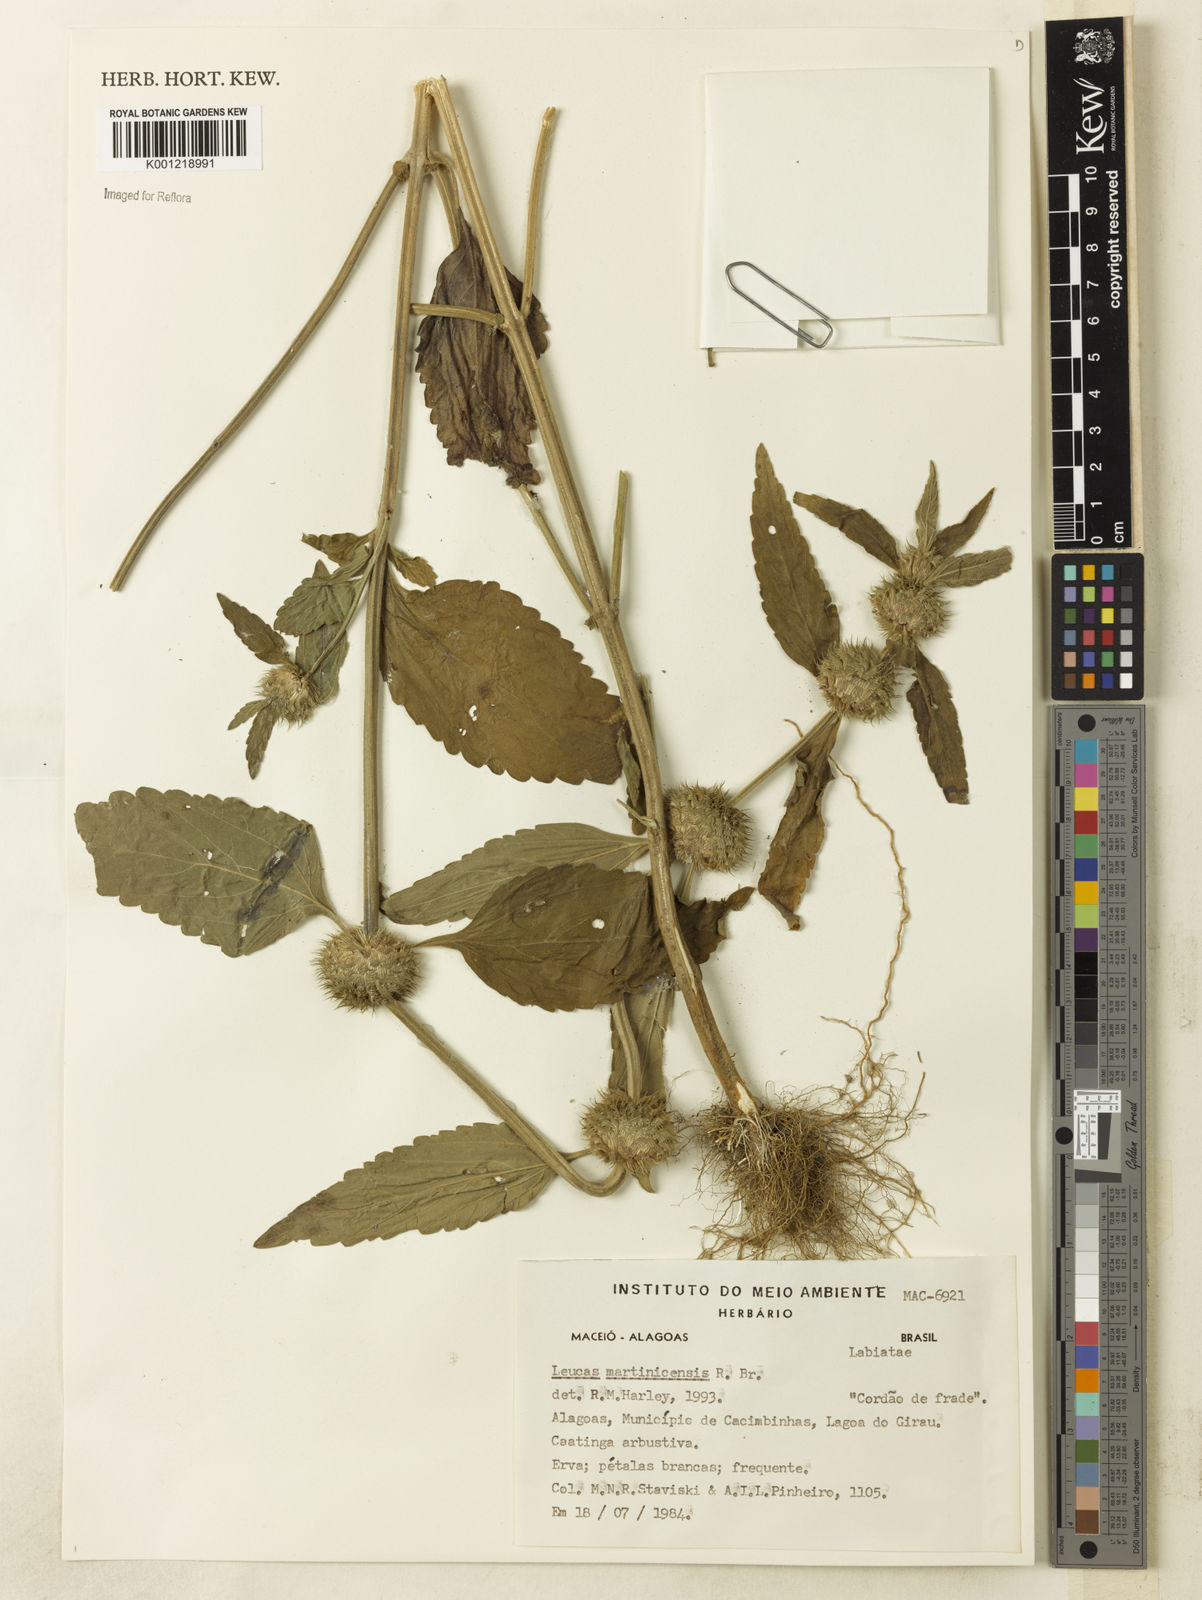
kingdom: Plantae
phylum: Tracheophyta
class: Magnoliopsida
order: Lamiales
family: Lamiaceae
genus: Leucas
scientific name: Leucas martinicensis
